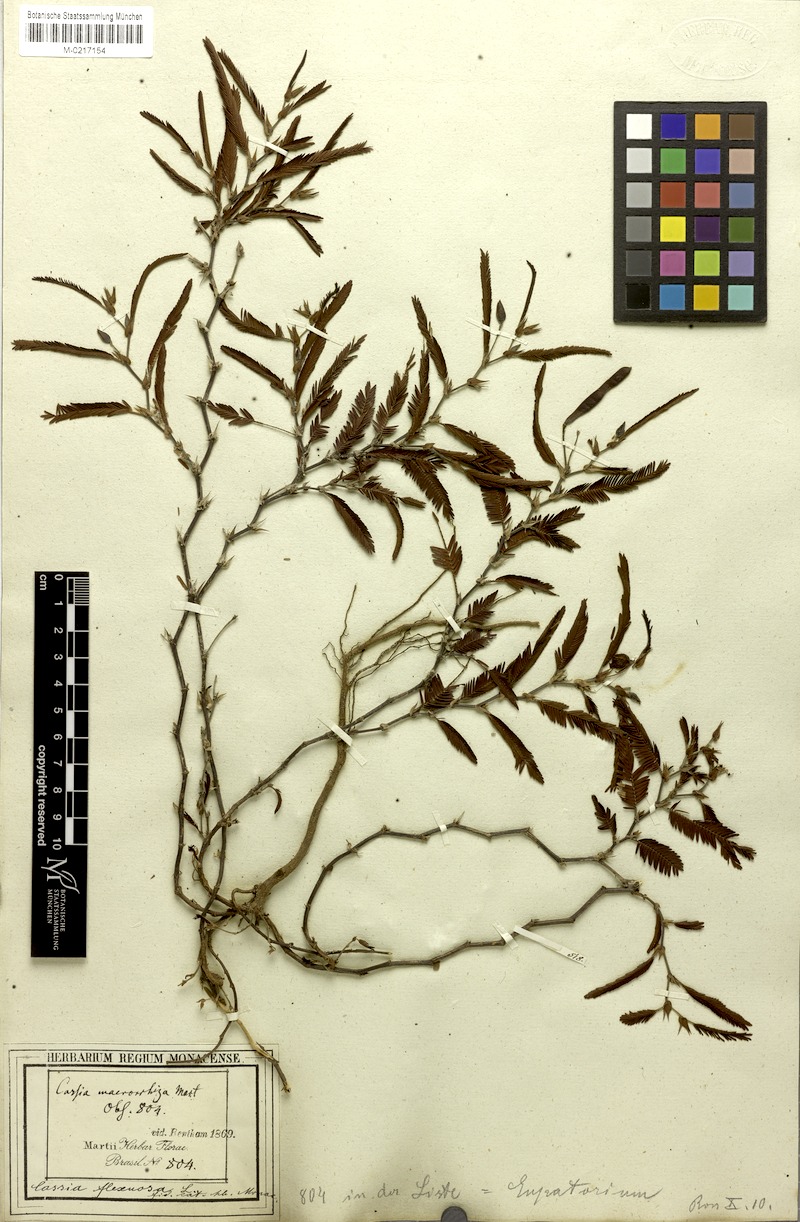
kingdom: Plantae
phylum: Tracheophyta
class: Magnoliopsida
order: Fabales
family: Fabaceae
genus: Chamaecrista
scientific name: Chamaecrista flexuosa
